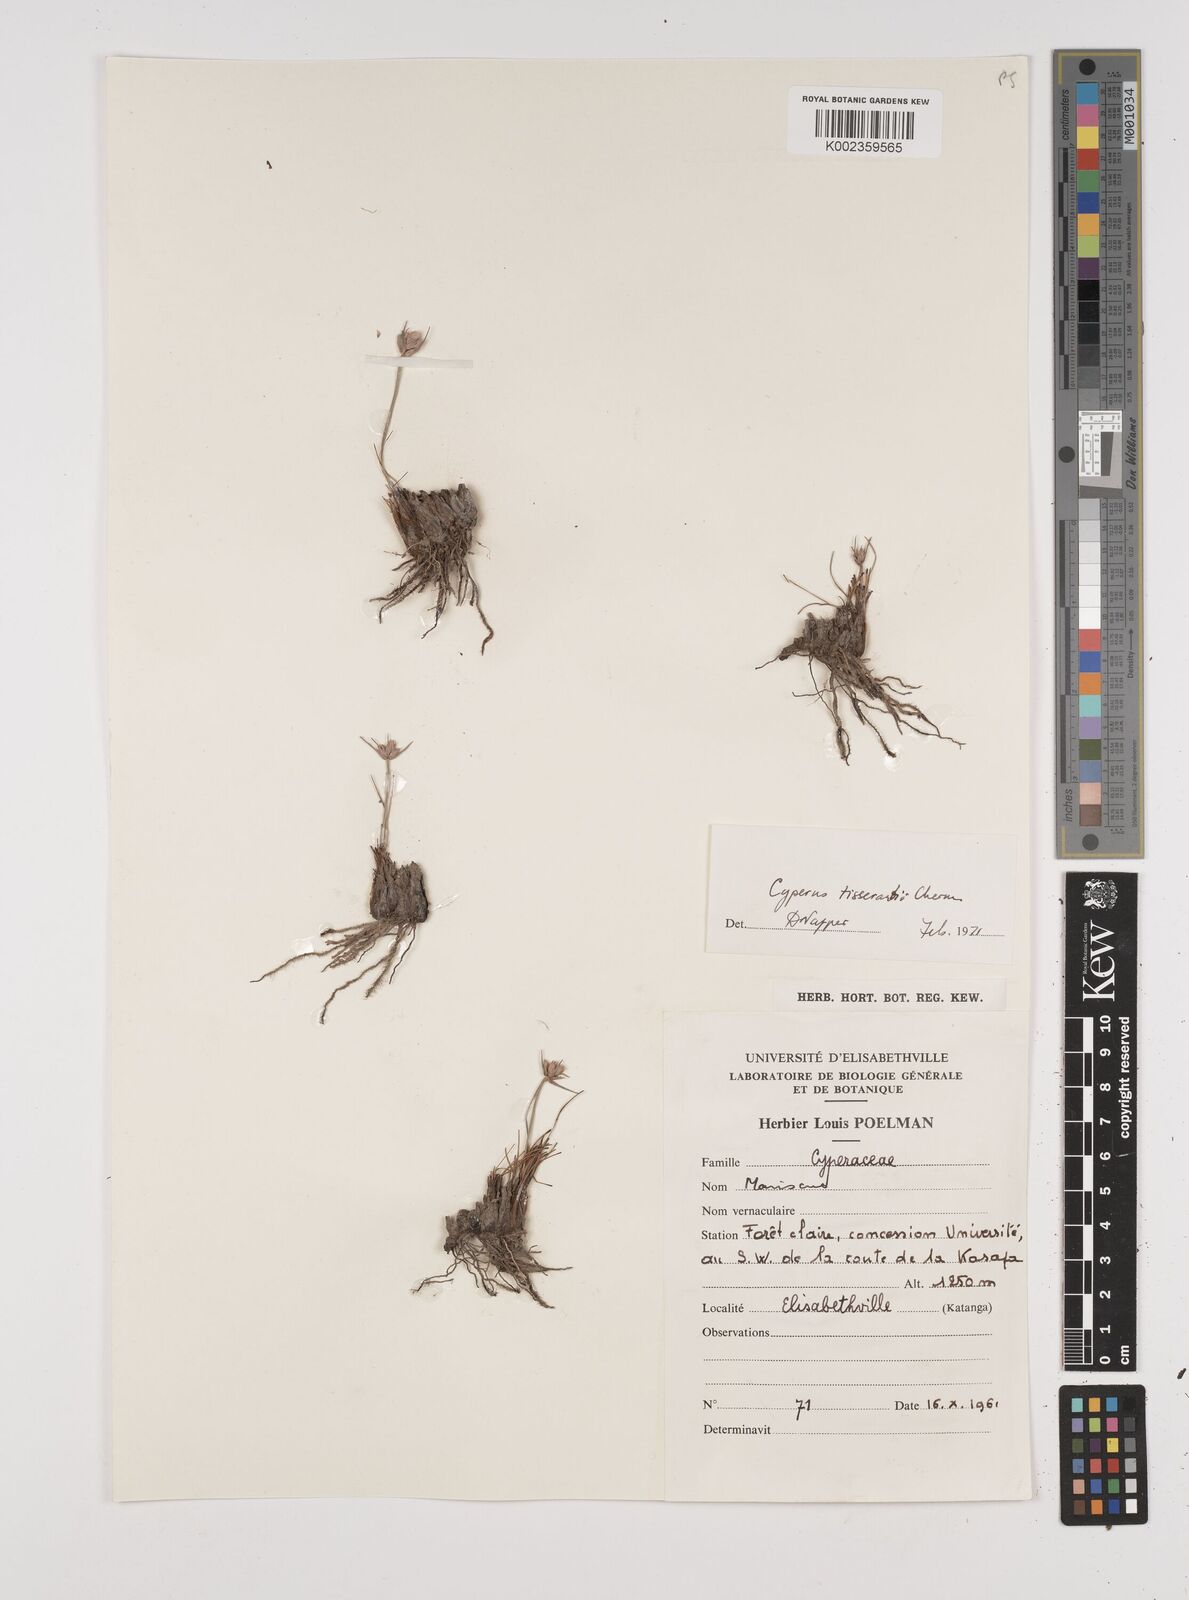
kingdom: Plantae
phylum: Tracheophyta
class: Liliopsida
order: Poales
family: Cyperaceae
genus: Cyperus
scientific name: Cyperus nduru
